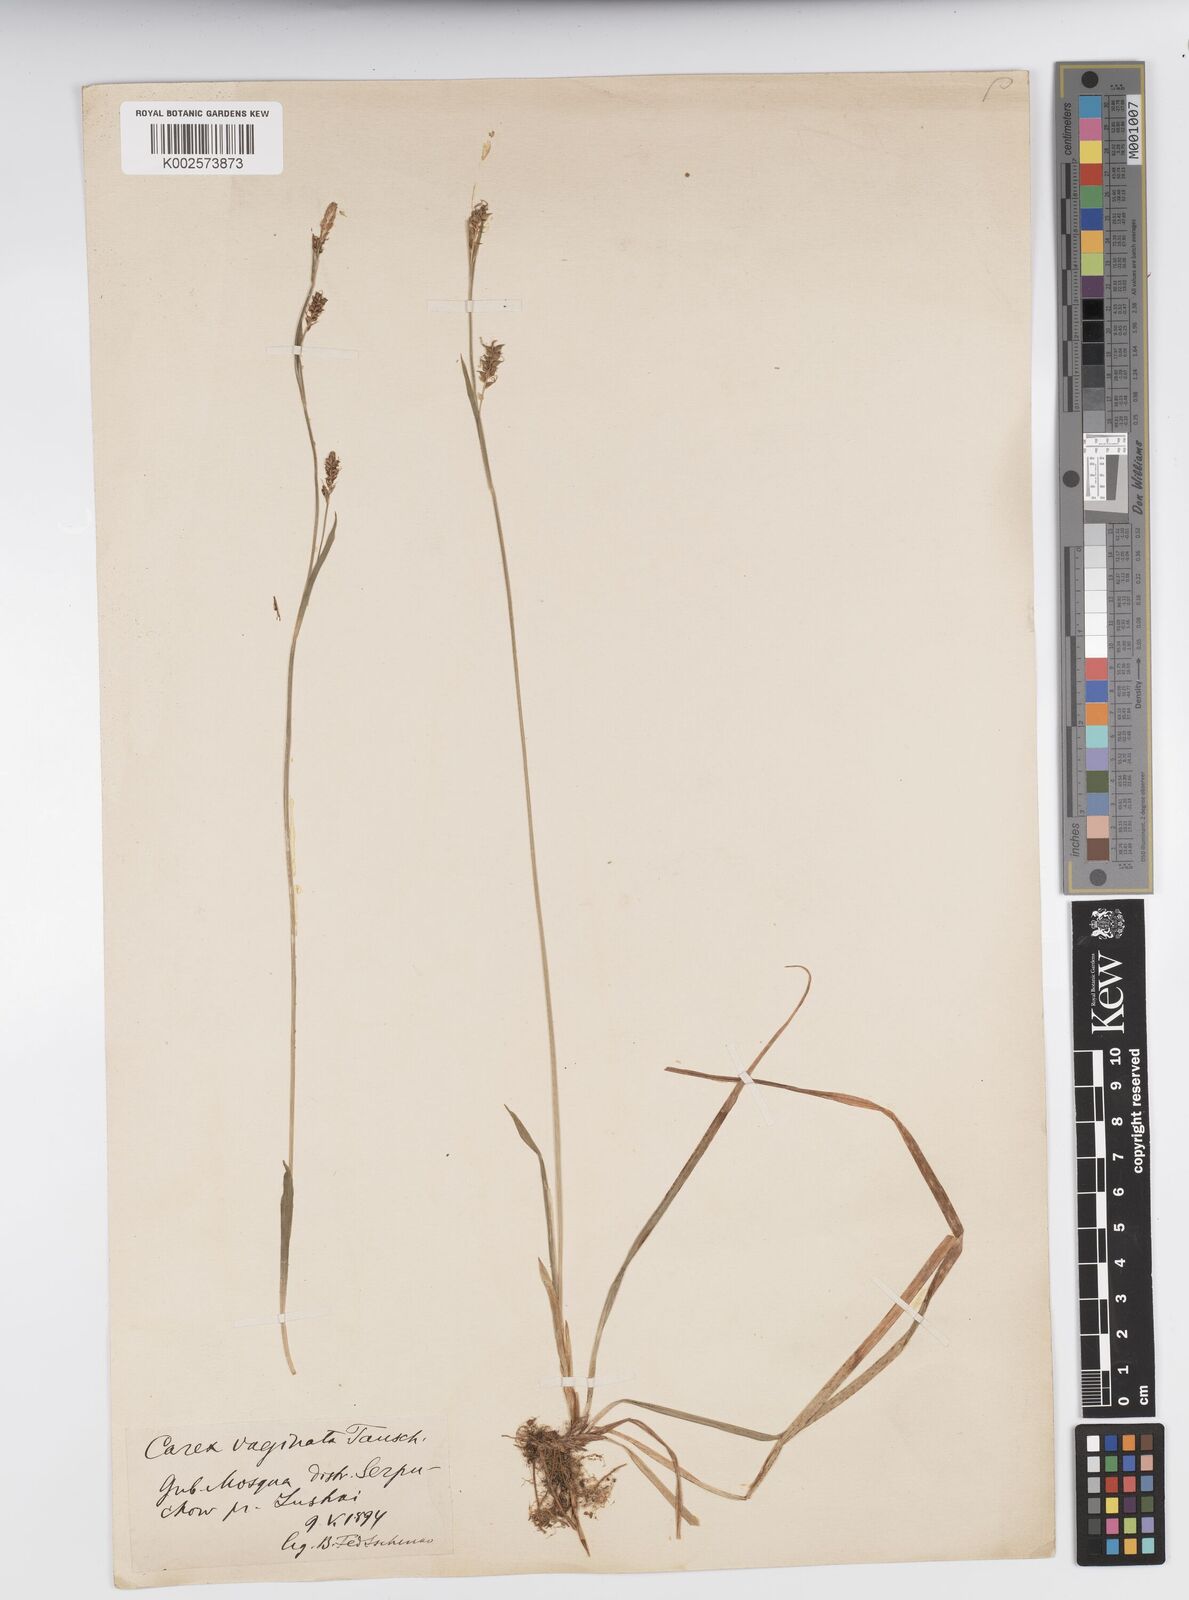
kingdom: Plantae
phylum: Tracheophyta
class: Liliopsida
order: Poales
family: Cyperaceae
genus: Carex
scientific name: Carex vaginata
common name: Sheathed sedge
